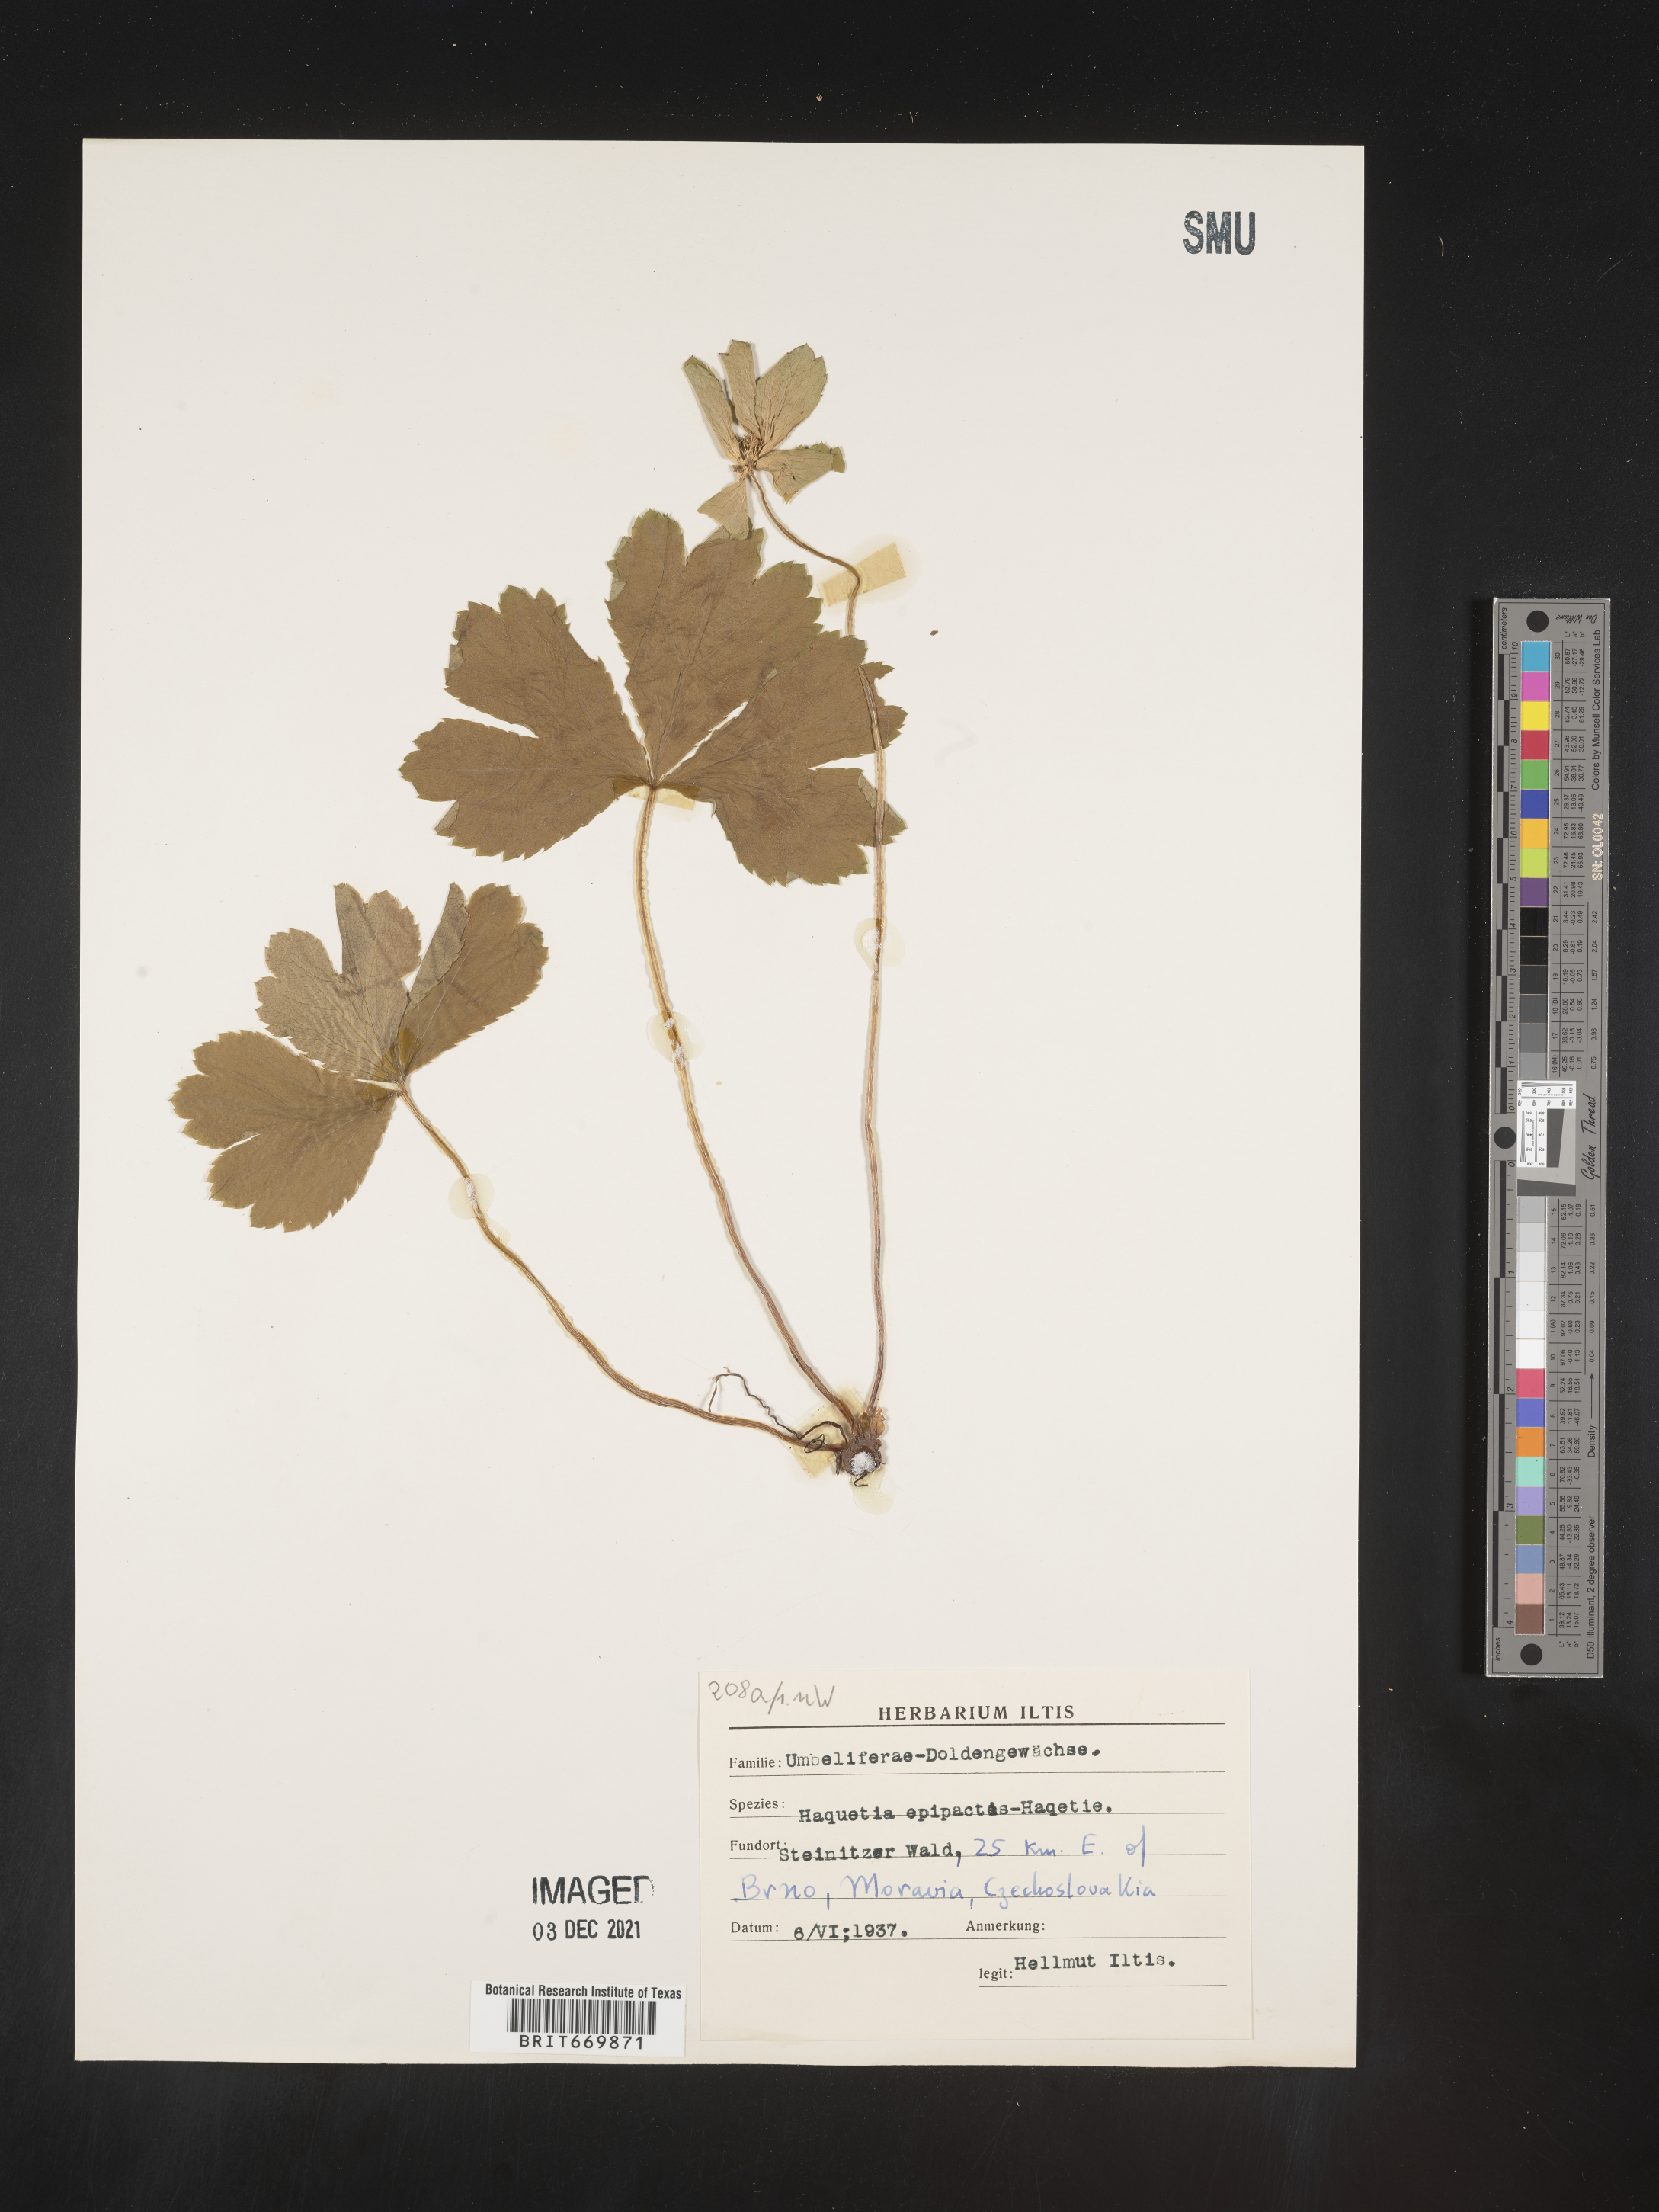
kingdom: Plantae
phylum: Tracheophyta
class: Magnoliopsida
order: Apiales
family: Apiaceae
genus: Hacquetia
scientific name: Hacquetia
